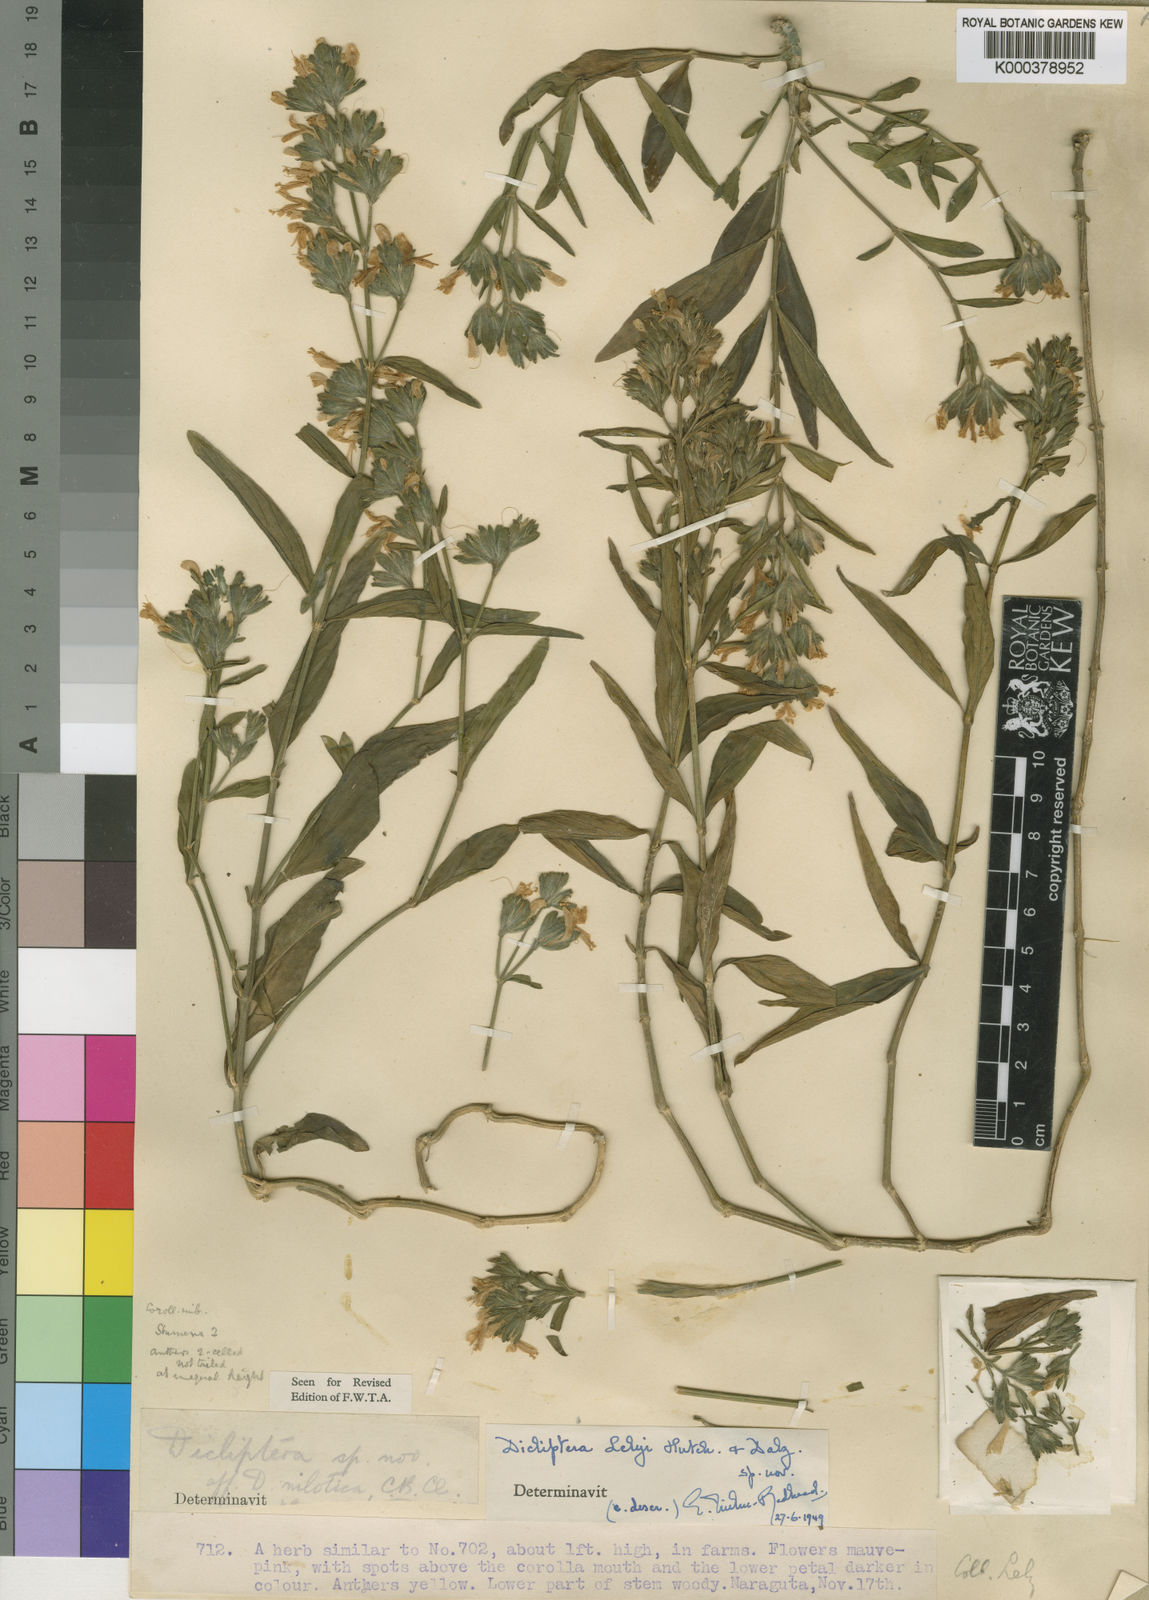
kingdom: Plantae
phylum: Tracheophyta
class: Magnoliopsida
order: Lamiales
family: Acanthaceae
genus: Dicliptera
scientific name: Dicliptera pumila
